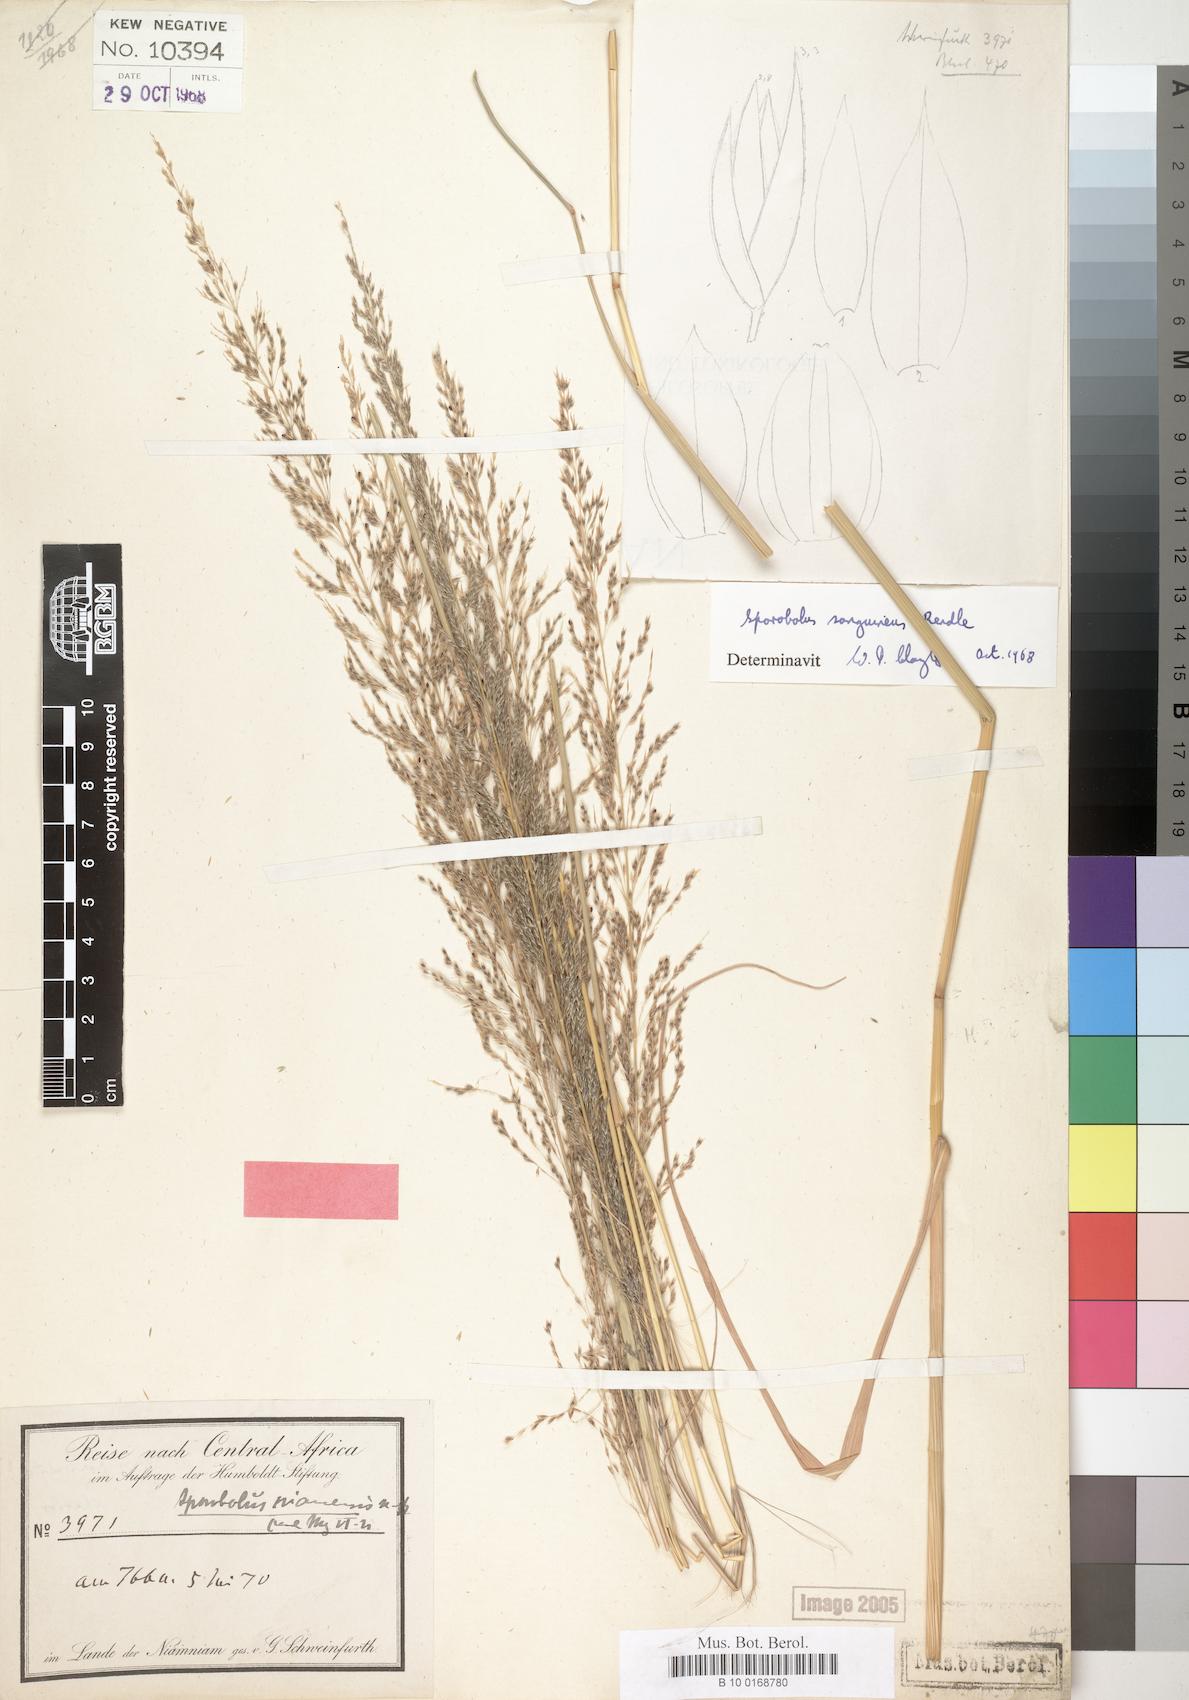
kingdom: Plantae
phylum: Tracheophyta
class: Liliopsida
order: Poales
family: Poaceae
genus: Sporobolus
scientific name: Sporobolus sanguineus
